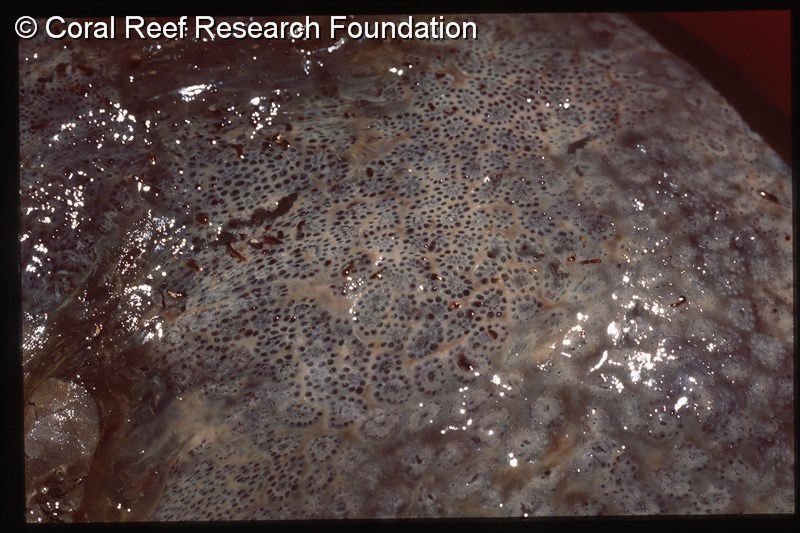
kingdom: Animalia
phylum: Chordata
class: Ascidiacea
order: Aplousobranchia
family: Polyclinidae
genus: Aplidium
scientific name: Aplidium
